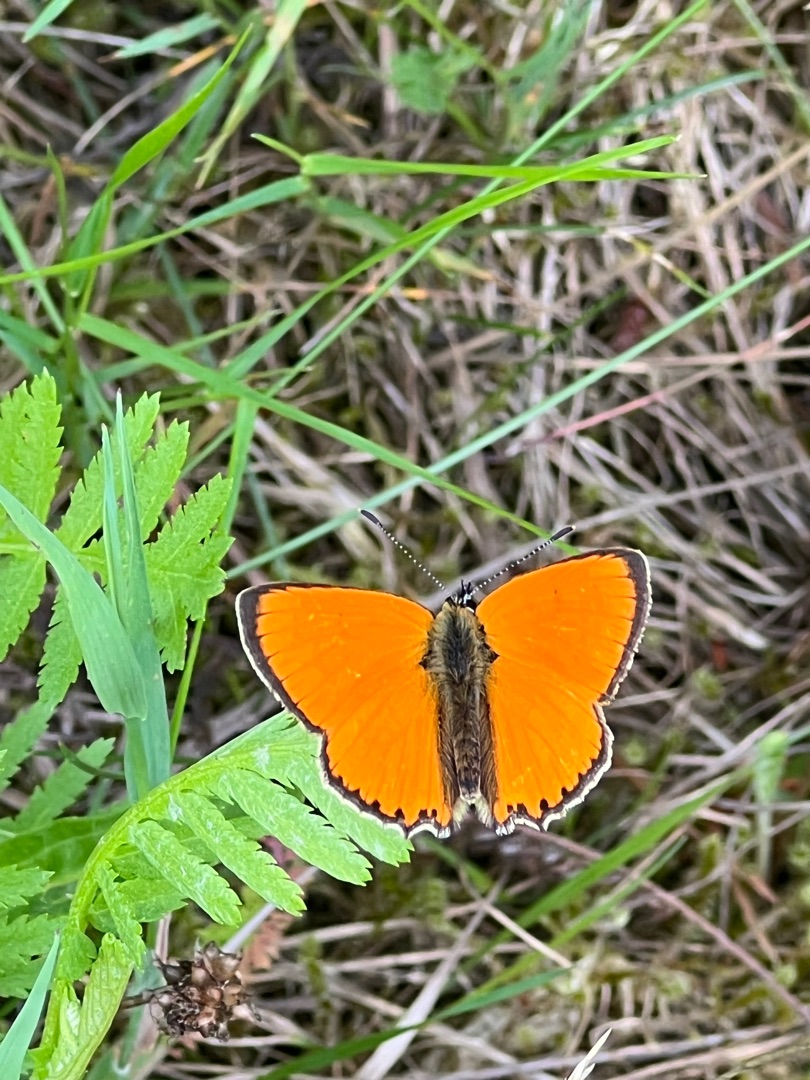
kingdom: Animalia
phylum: Arthropoda
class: Insecta
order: Lepidoptera
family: Lycaenidae
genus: Lycaena
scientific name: Lycaena virgaureae
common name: Dukatsommerfugl
